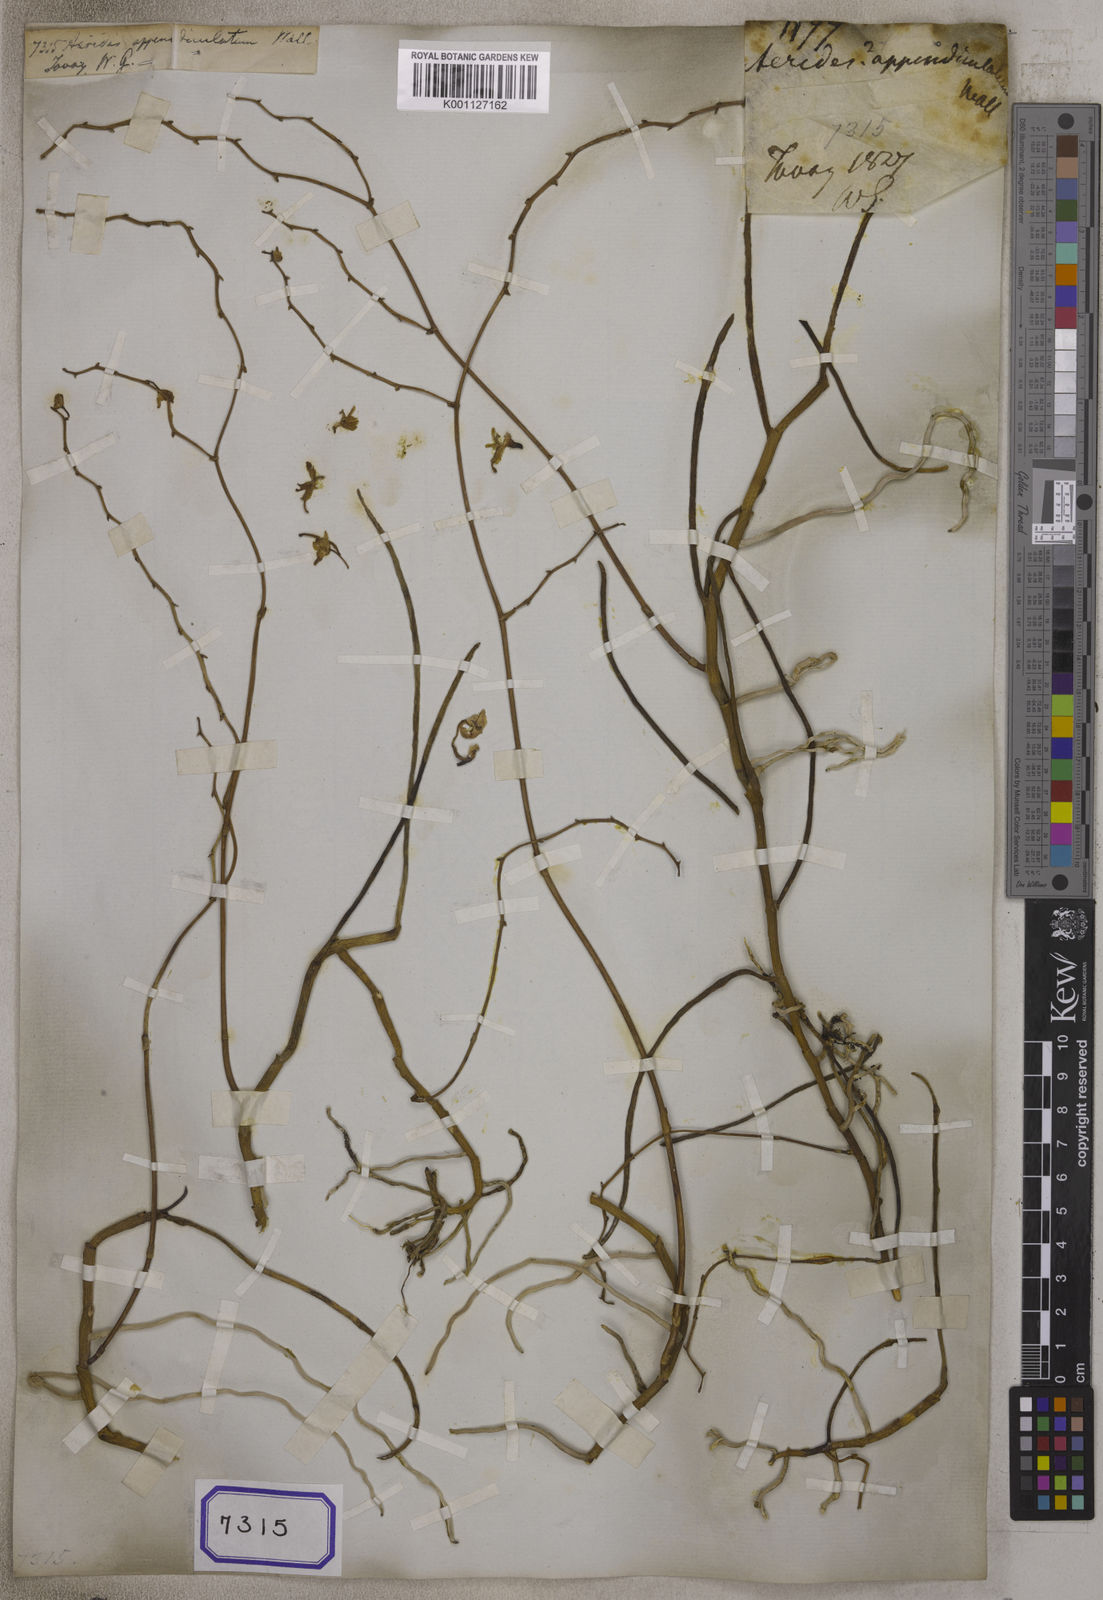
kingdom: Plantae
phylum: Tracheophyta
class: Liliopsida
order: Asparagales
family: Orchidaceae
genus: Aerides
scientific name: Aerides
